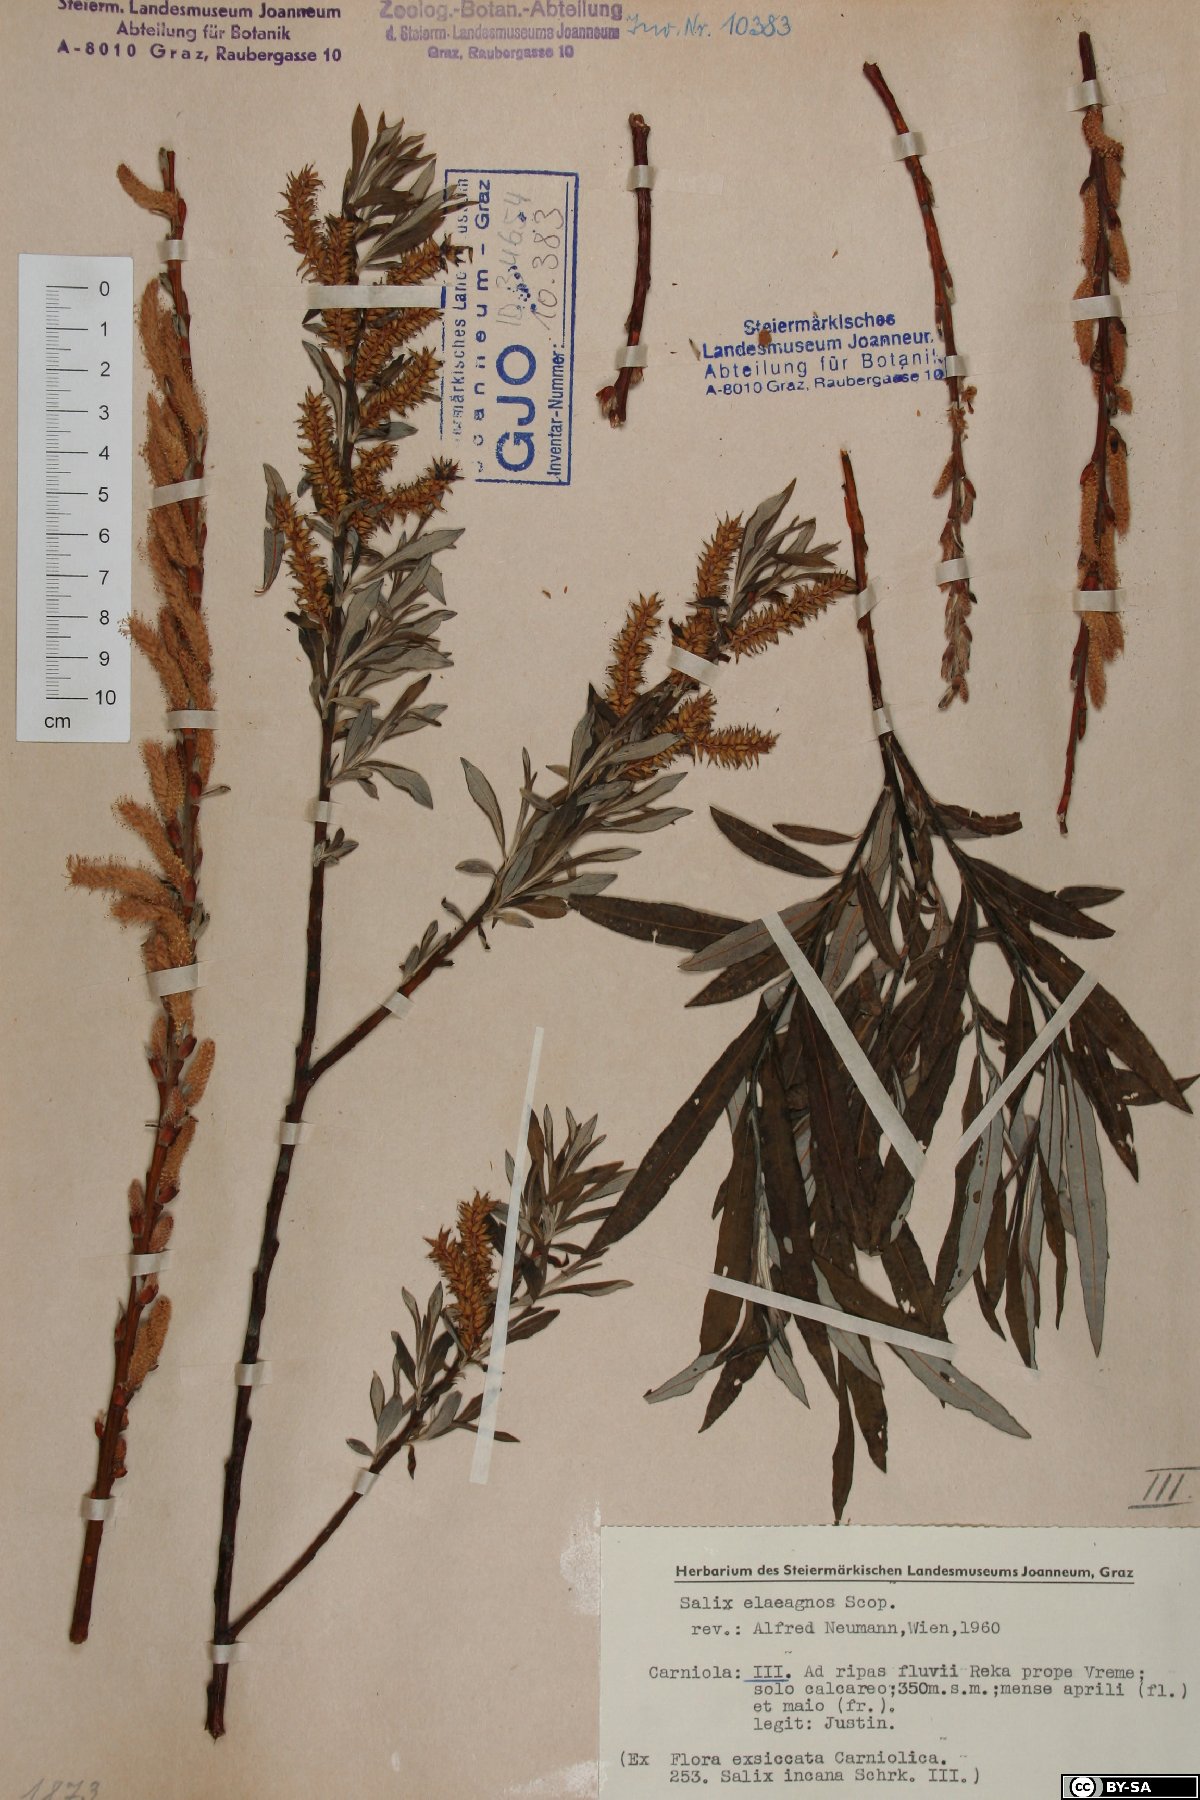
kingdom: Plantae
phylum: Tracheophyta
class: Magnoliopsida
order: Malpighiales
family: Salicaceae
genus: Salix
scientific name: Salix eleagnos
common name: Elaeagnus willow
